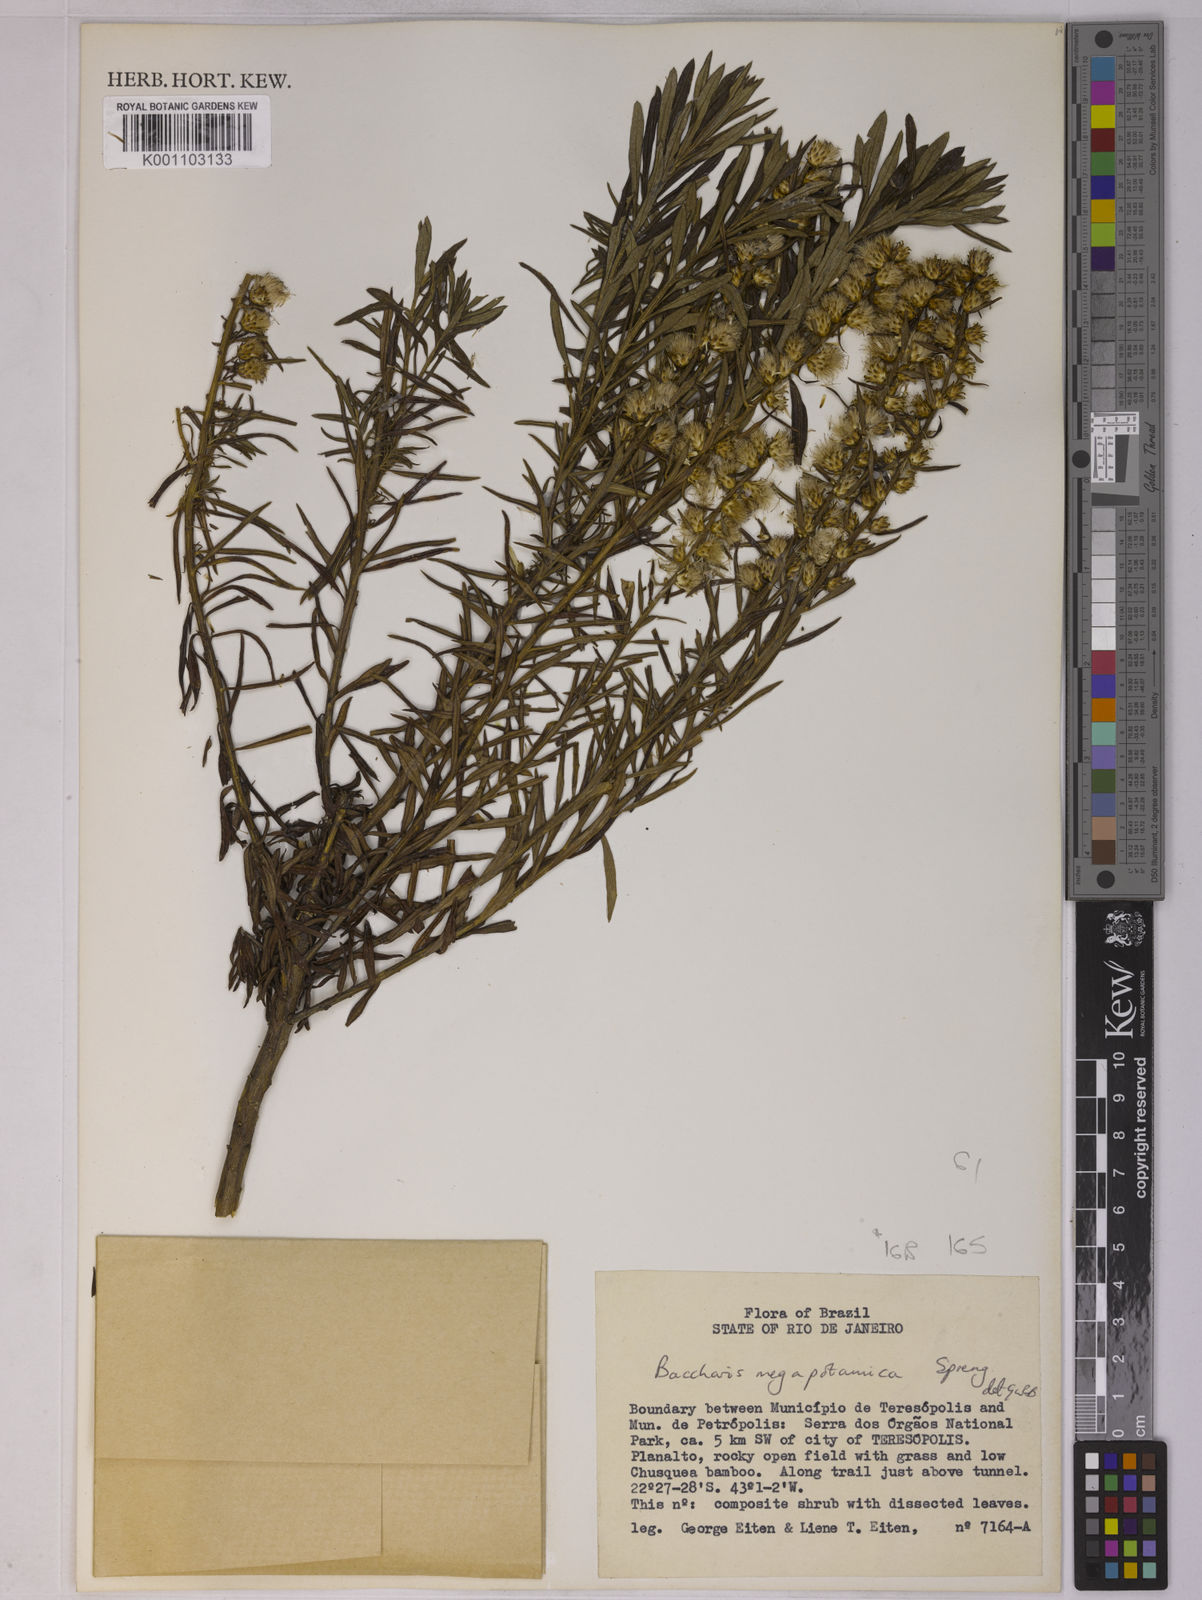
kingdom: Plantae
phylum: Tracheophyta
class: Magnoliopsida
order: Asterales
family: Asteraceae
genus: Baccharis
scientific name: Baccharis megapotamica
